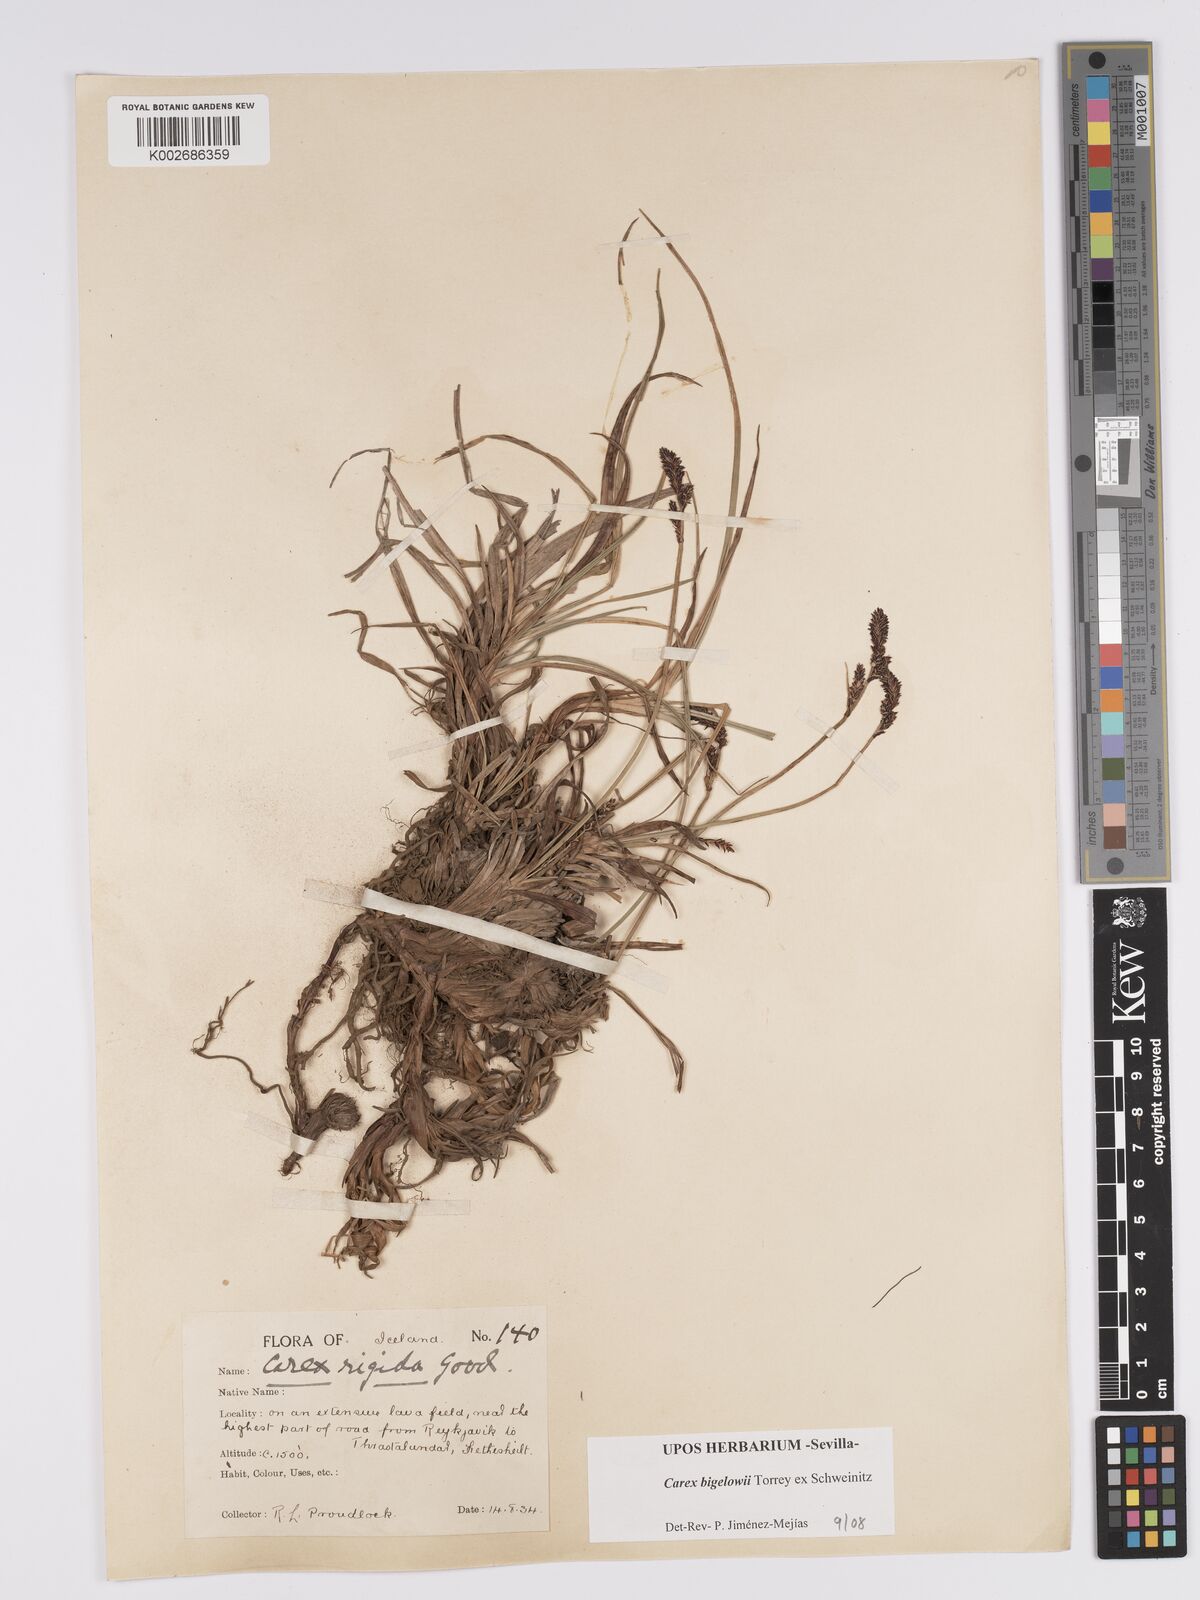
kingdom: Plantae
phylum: Tracheophyta
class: Liliopsida
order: Poales
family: Cyperaceae
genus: Carex
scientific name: Carex bigelowii
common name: Stiff sedge
